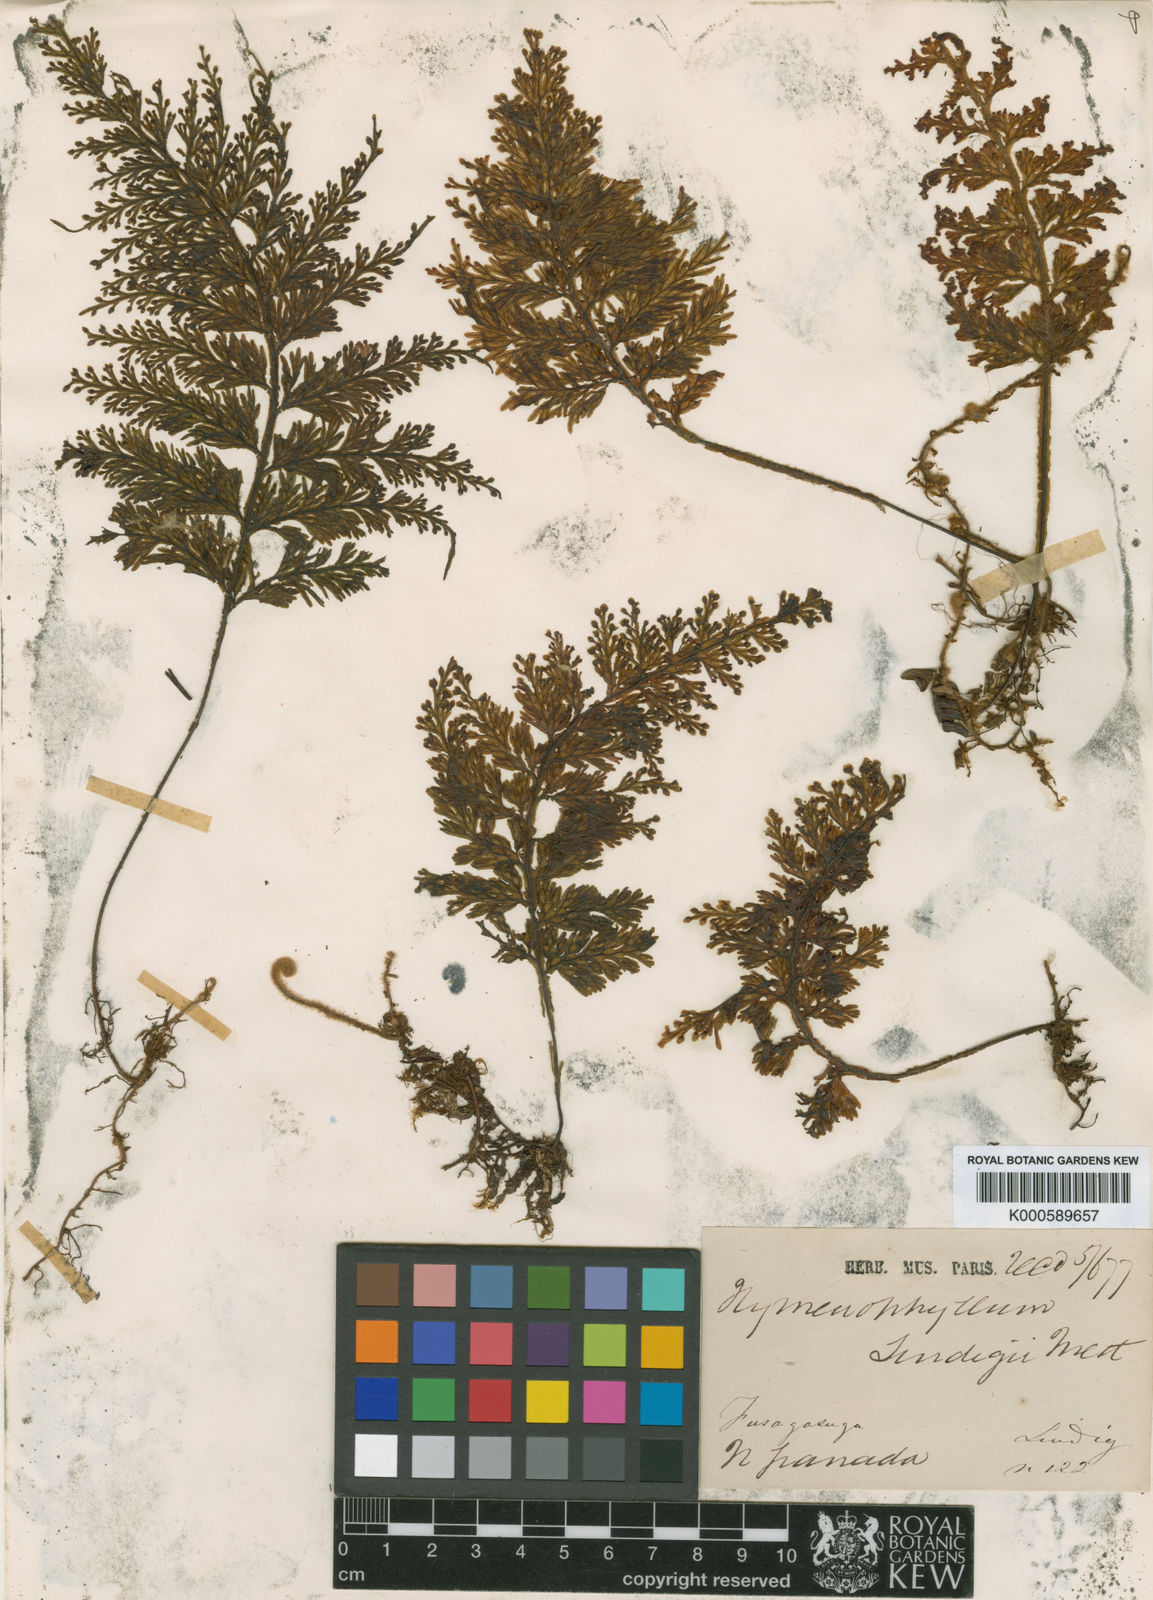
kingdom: Plantae
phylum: Tracheophyta
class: Polypodiopsida
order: Hymenophyllales
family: Hymenophyllaceae
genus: Hymenophyllum
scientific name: Hymenophyllum lindigii
